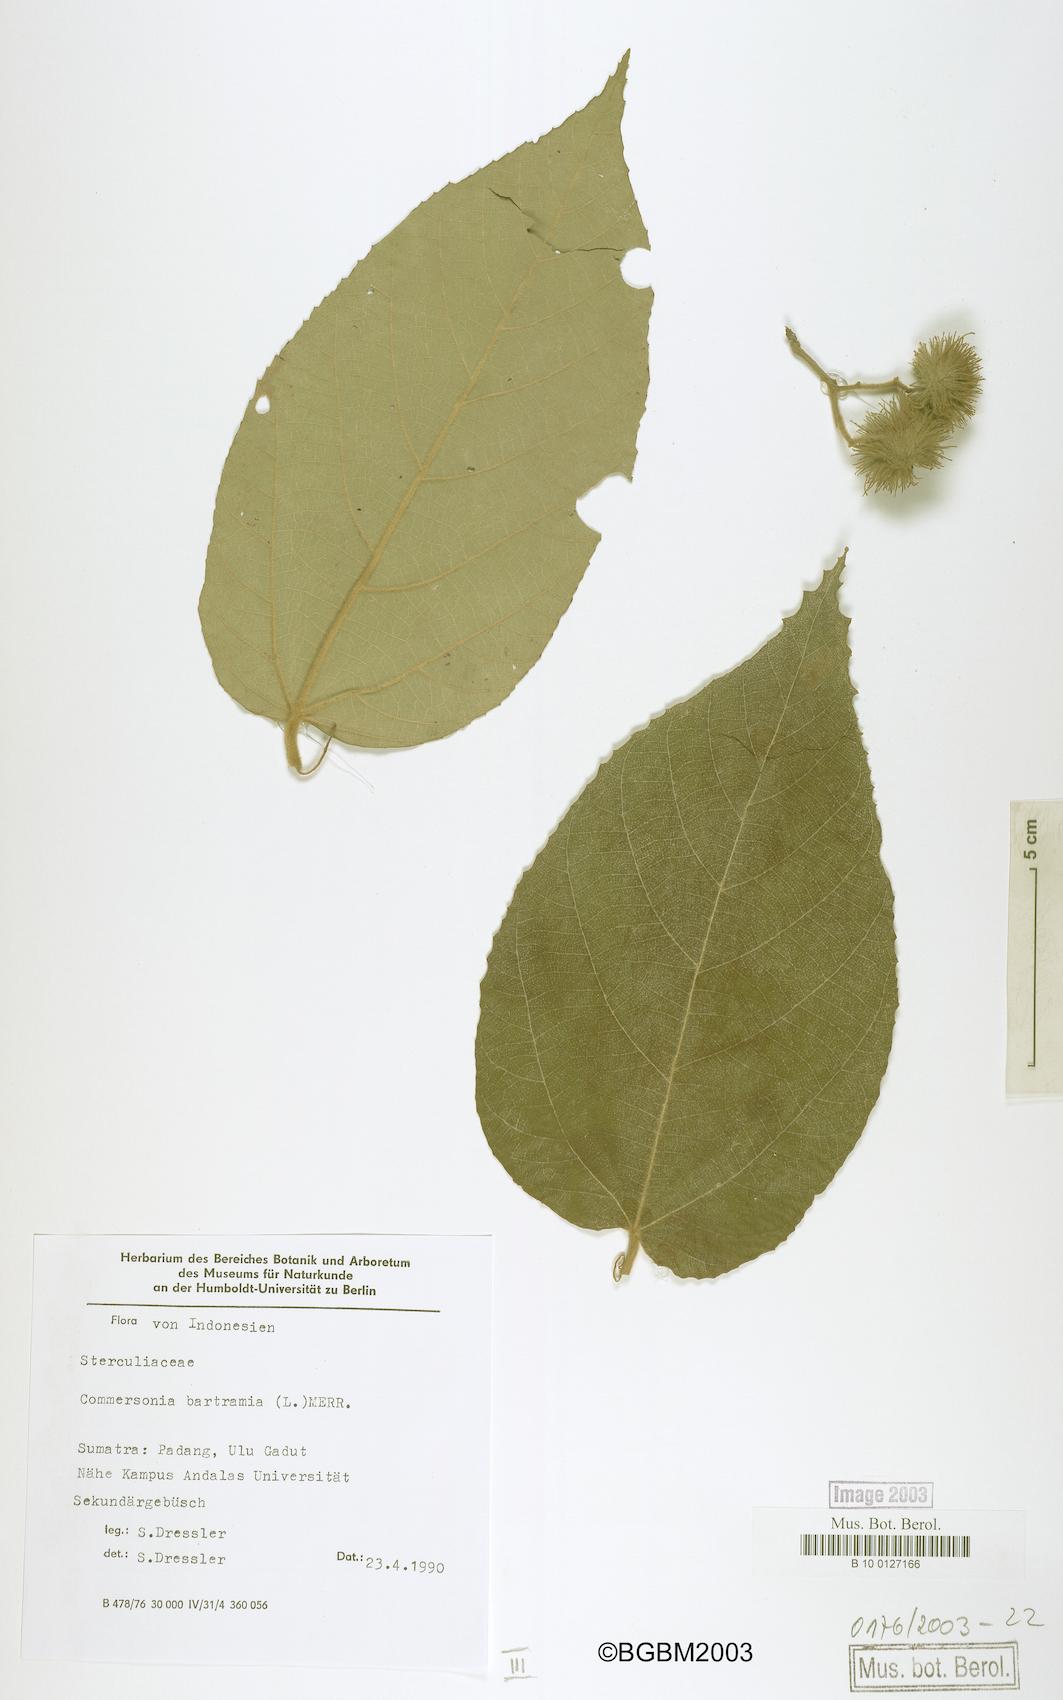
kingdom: Plantae
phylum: Tracheophyta
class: Magnoliopsida
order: Malvales
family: Malvaceae
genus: Commersonia
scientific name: Commersonia bartramia
